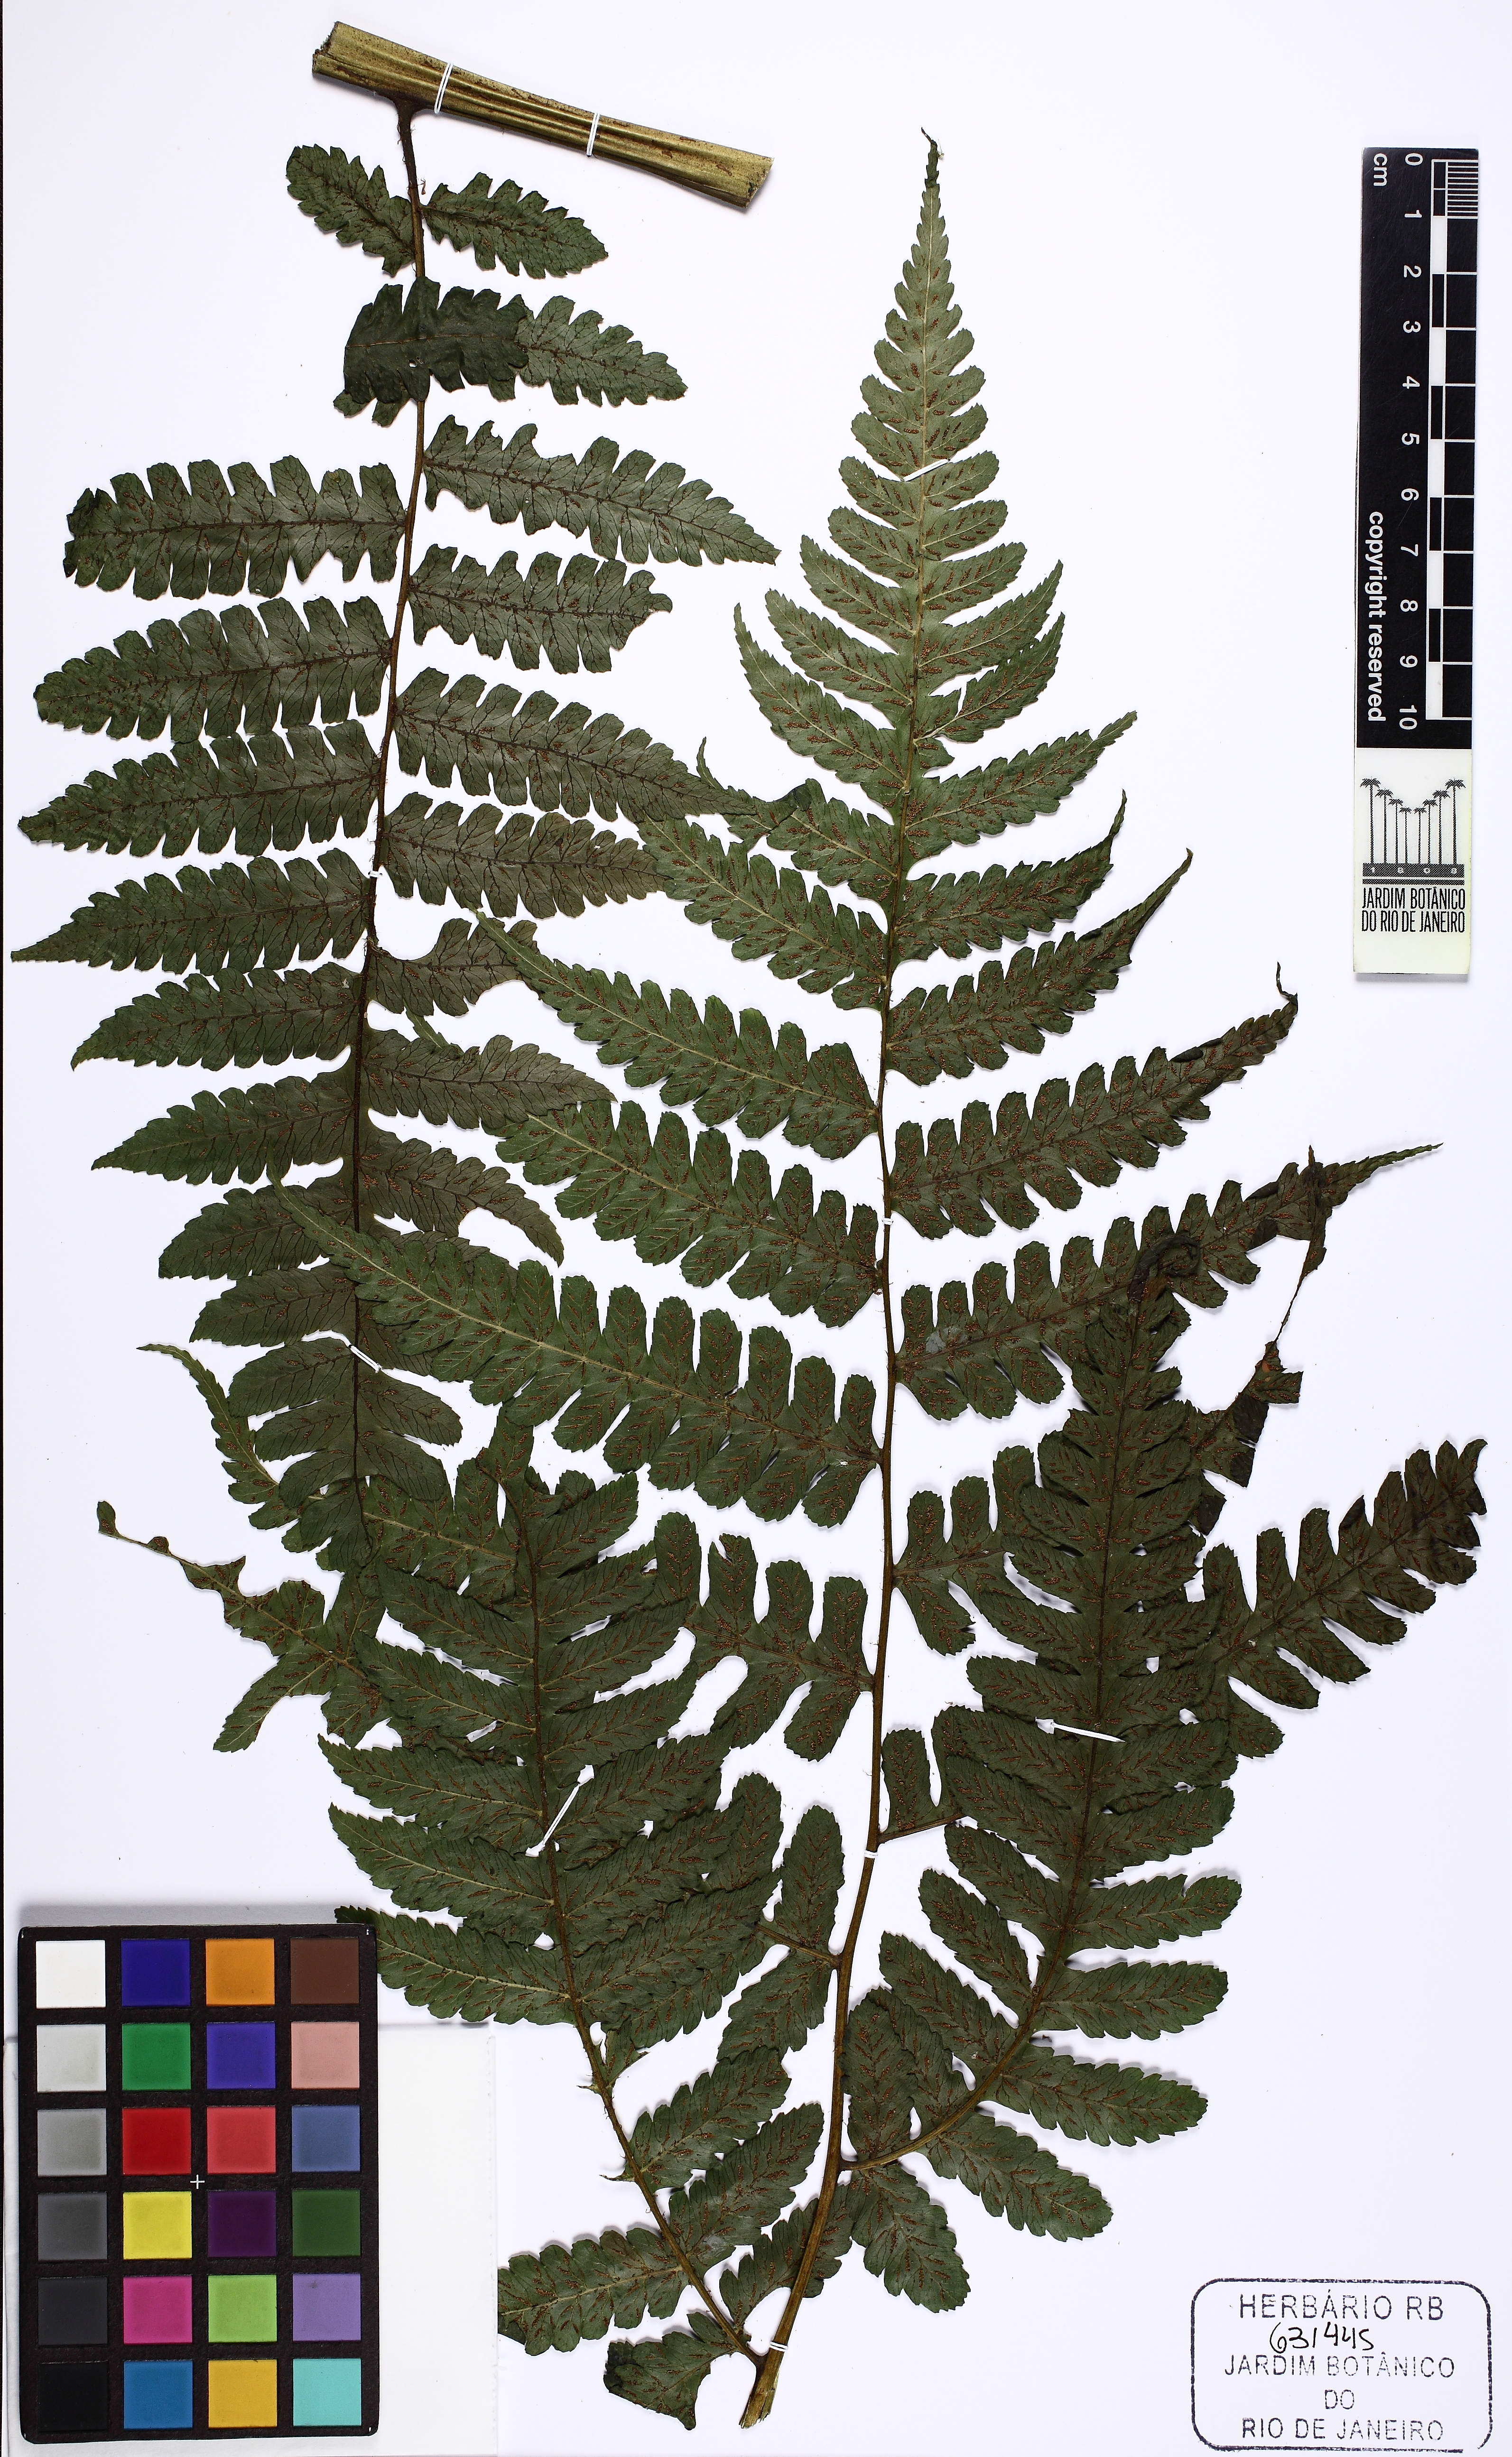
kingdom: Plantae
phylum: Tracheophyta
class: Polypodiopsida
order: Polypodiales
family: Athyriaceae
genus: Diplazium
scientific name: Diplazium rostratum
